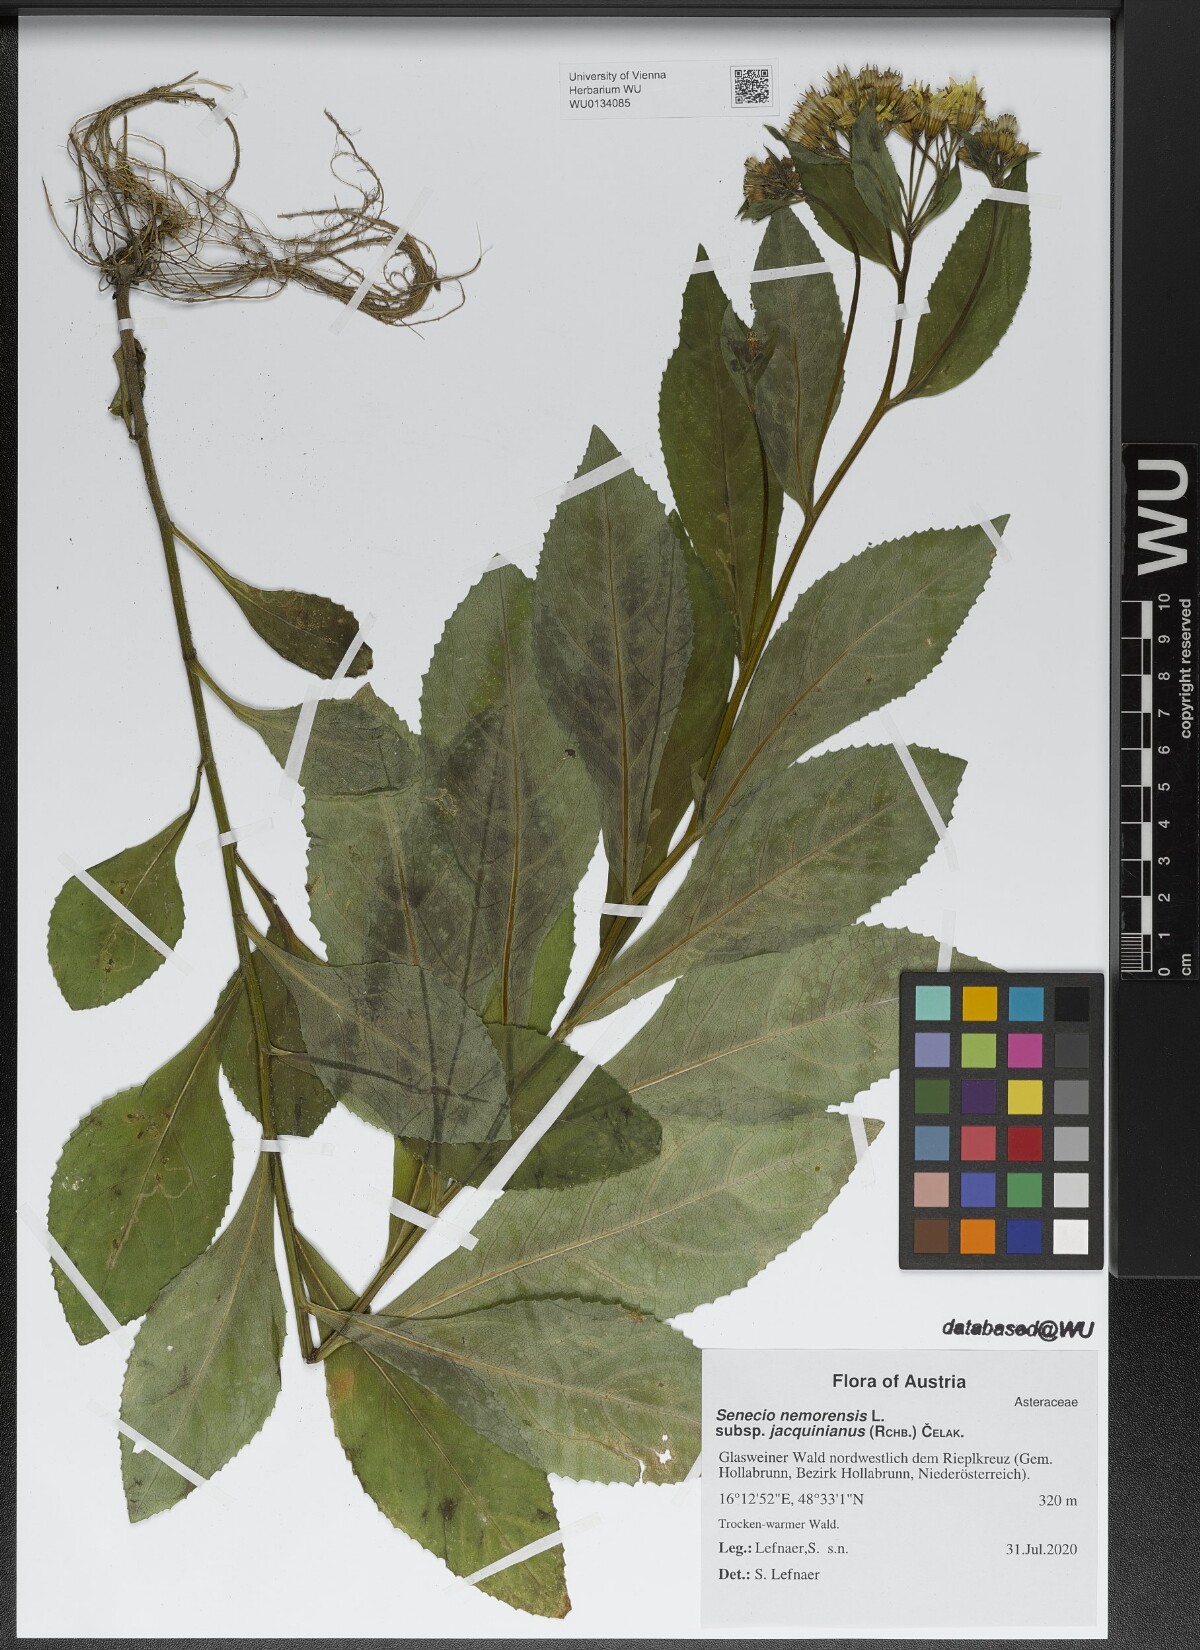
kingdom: Plantae
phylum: Tracheophyta
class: Magnoliopsida
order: Asterales
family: Asteraceae
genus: Senecio
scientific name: Senecio germanicus
